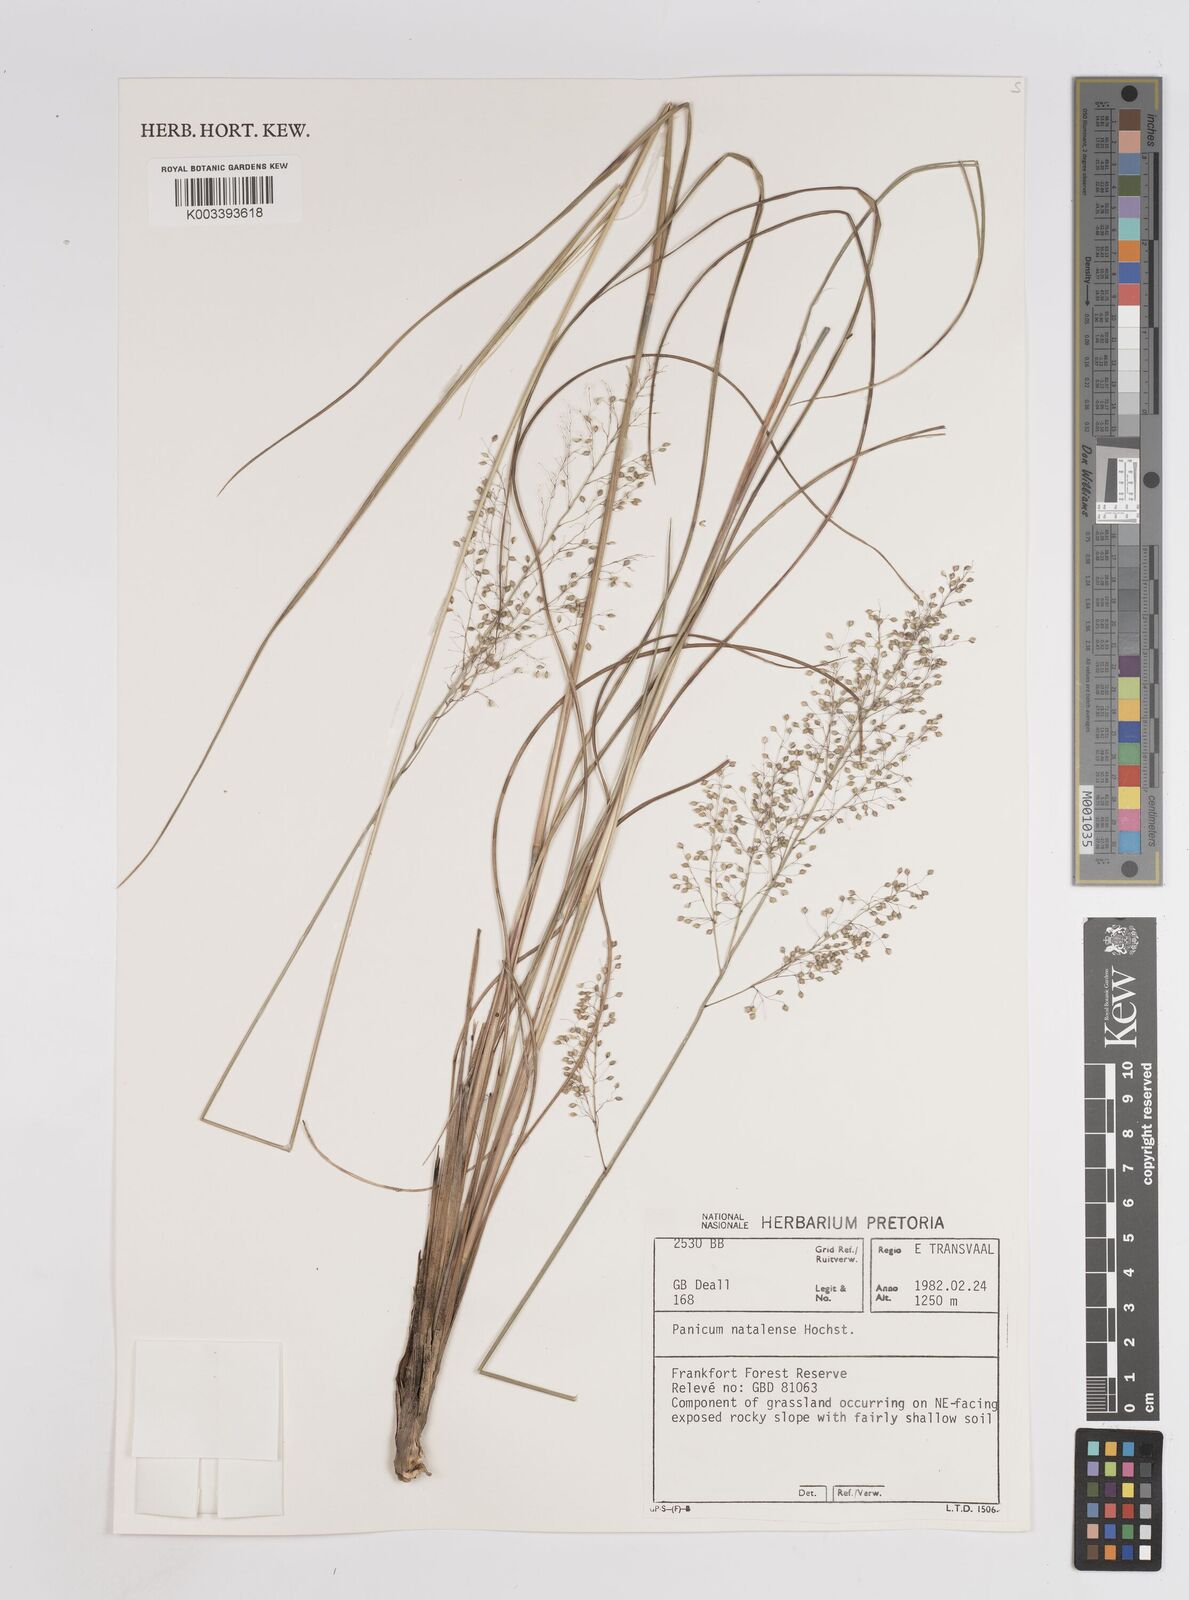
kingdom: Plantae
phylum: Tracheophyta
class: Liliopsida
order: Poales
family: Poaceae
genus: Trichanthecium
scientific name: Trichanthecium natalense
